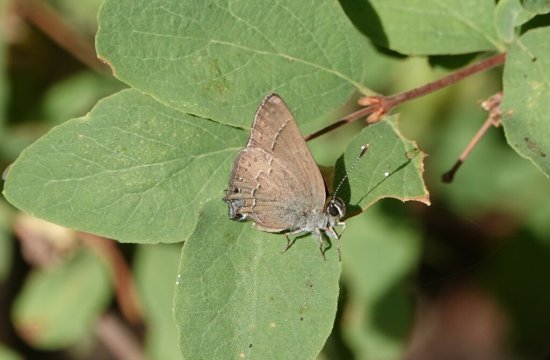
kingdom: Animalia
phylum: Arthropoda
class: Insecta
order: Lepidoptera
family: Lycaenidae
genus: Strymon
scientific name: Strymon saepium
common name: Hedgerow Hairstreak
